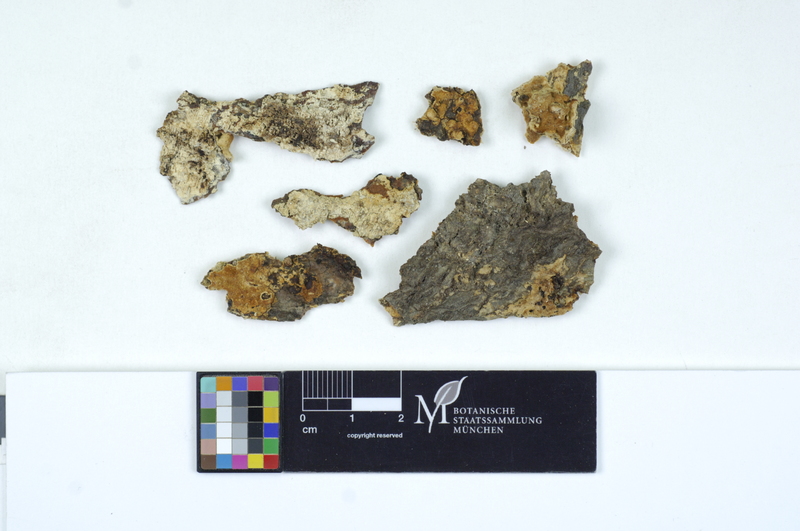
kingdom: Fungi
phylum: Basidiomycota
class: Agaricomycetes
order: Cantharellales
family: Tulasnellaceae
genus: Tulasnella
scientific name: Tulasnella pinicola
